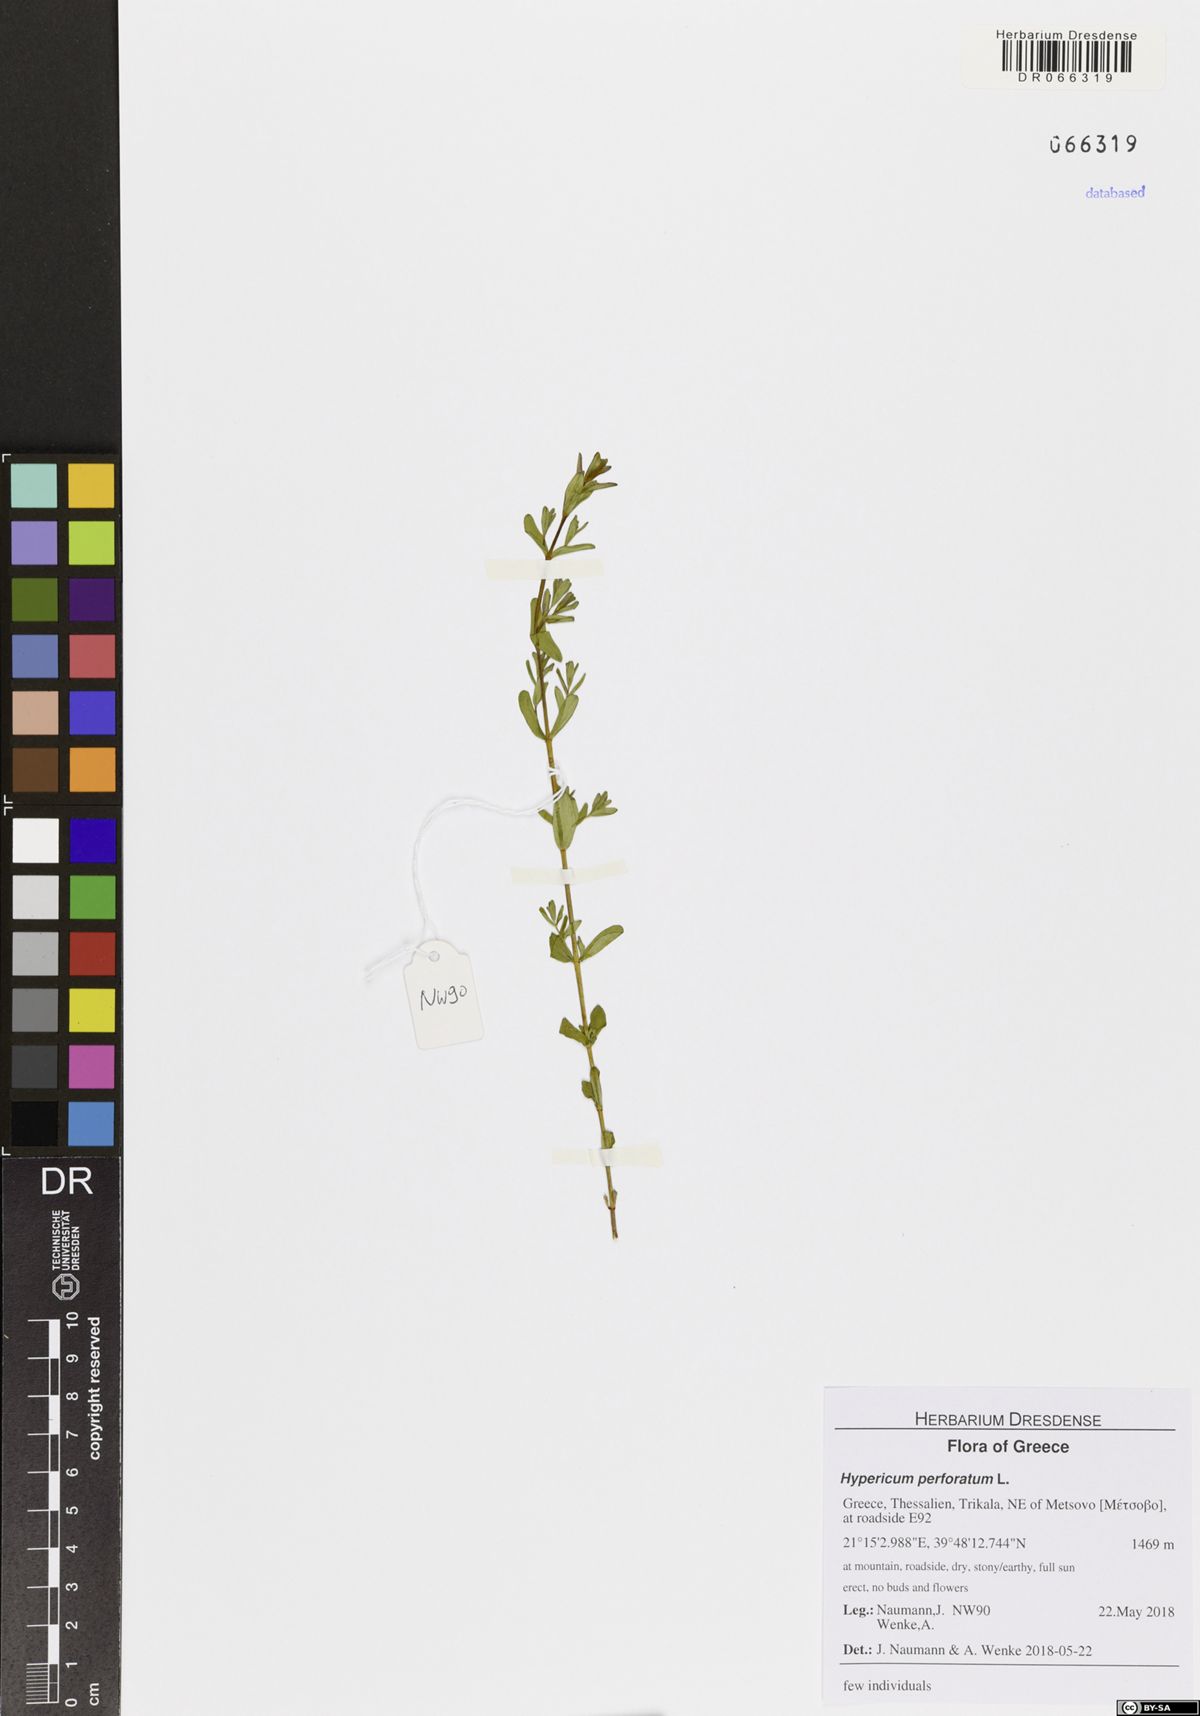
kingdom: Plantae
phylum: Tracheophyta
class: Magnoliopsida
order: Malpighiales
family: Hypericaceae
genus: Hypericum
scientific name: Hypericum perforatum
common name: Common st. johnswort
